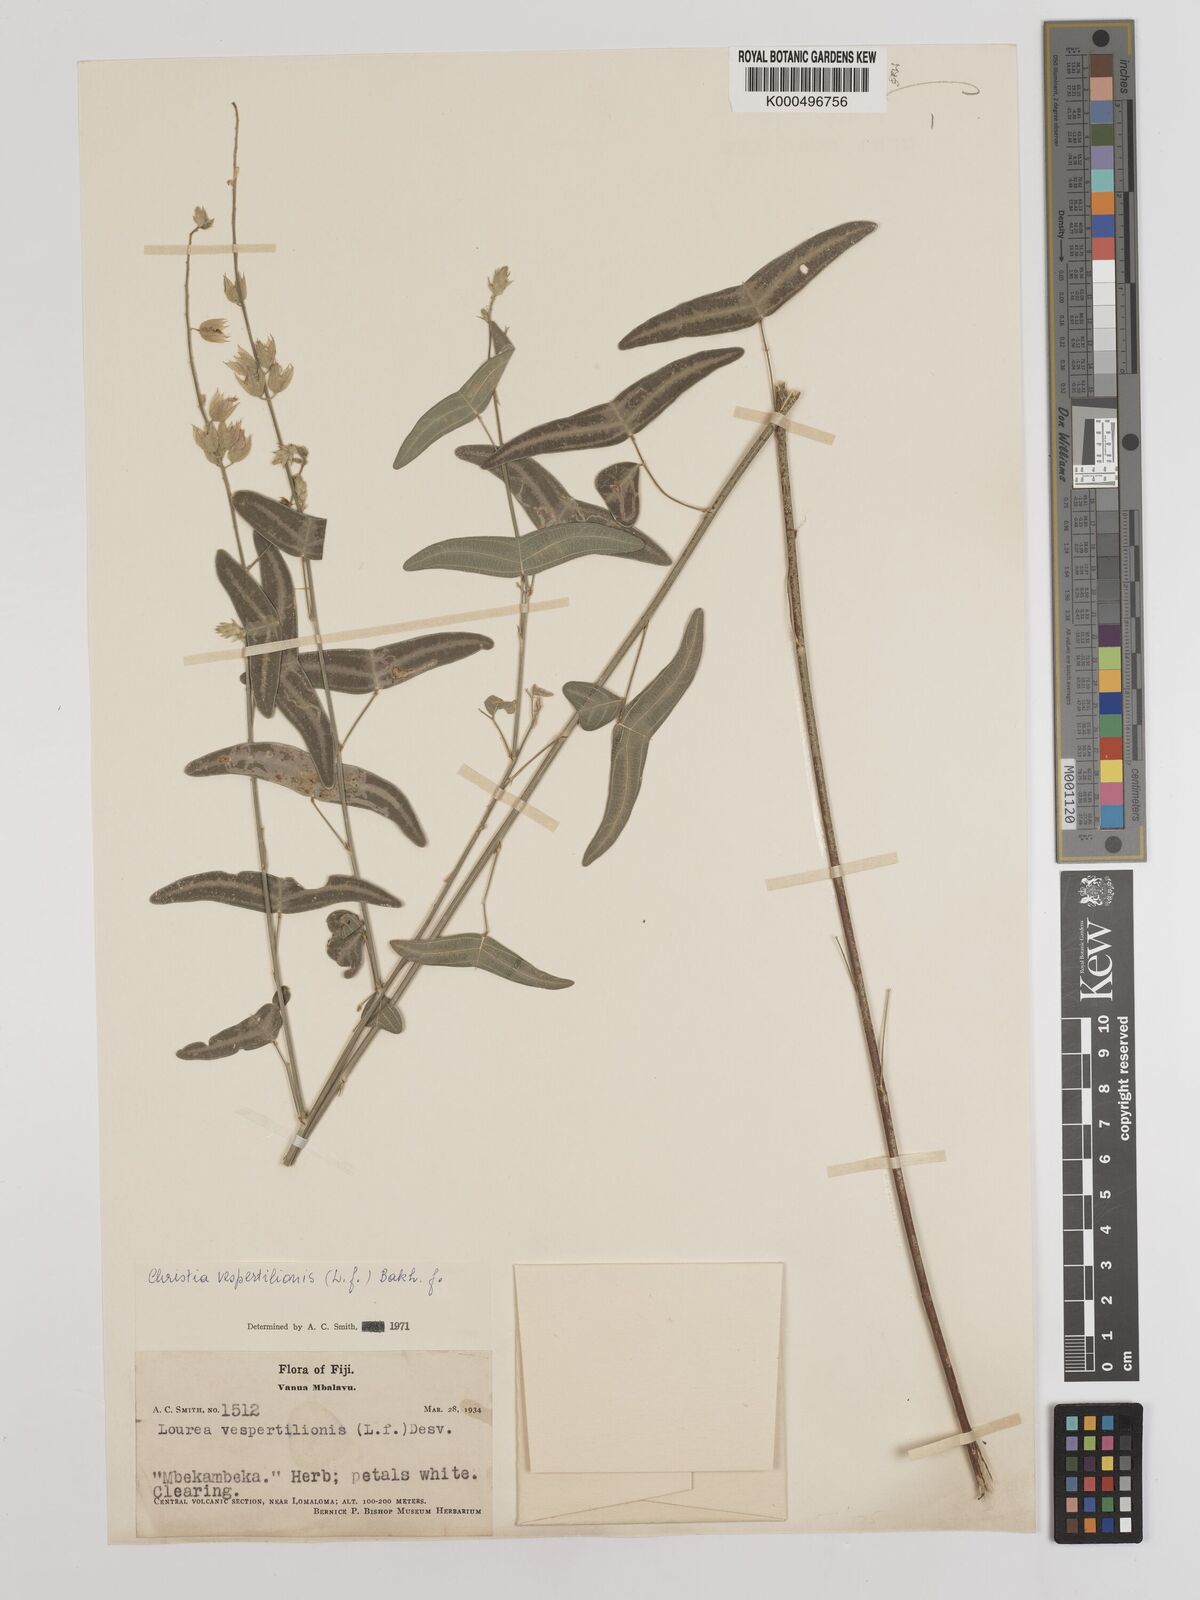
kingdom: Plantae
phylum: Tracheophyta
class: Magnoliopsida
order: Fabales
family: Fabaceae
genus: Christia
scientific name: Christia vespertilionis
